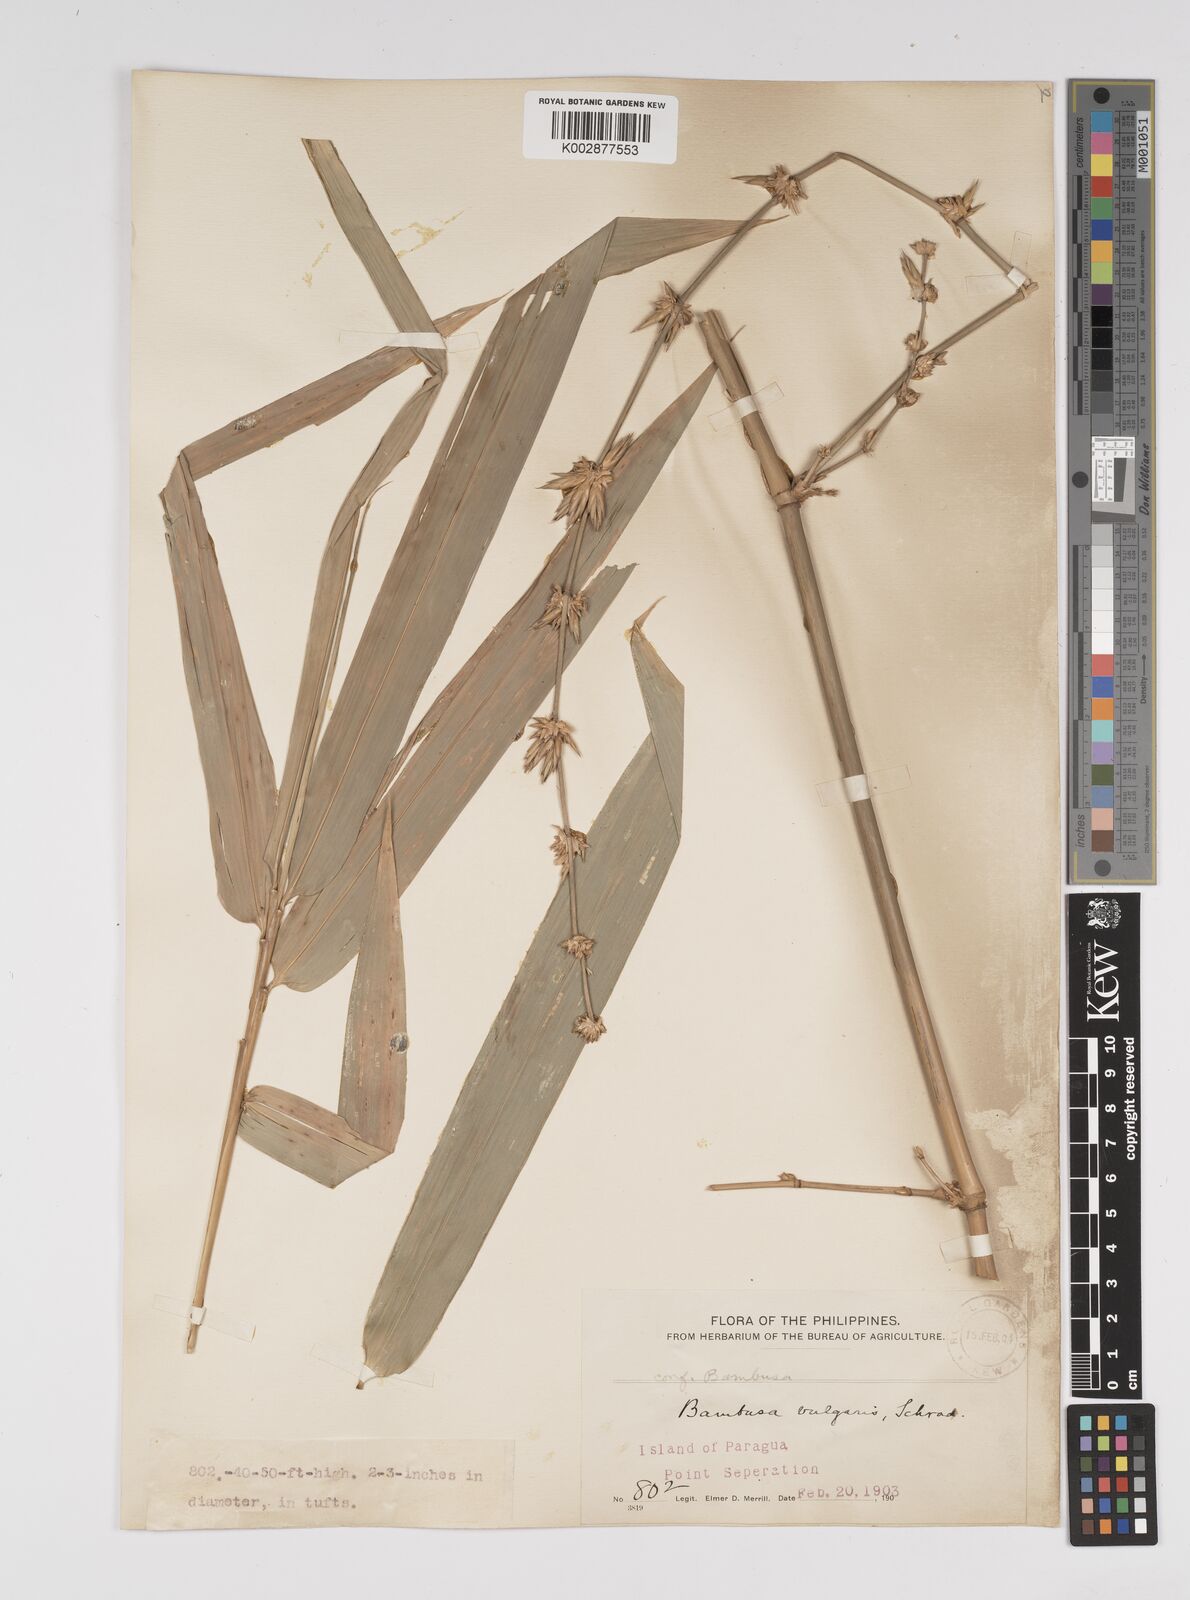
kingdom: Plantae
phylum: Tracheophyta
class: Liliopsida
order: Poales
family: Poaceae
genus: Bambusa
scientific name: Bambusa vulgaris
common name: Common bamboo
